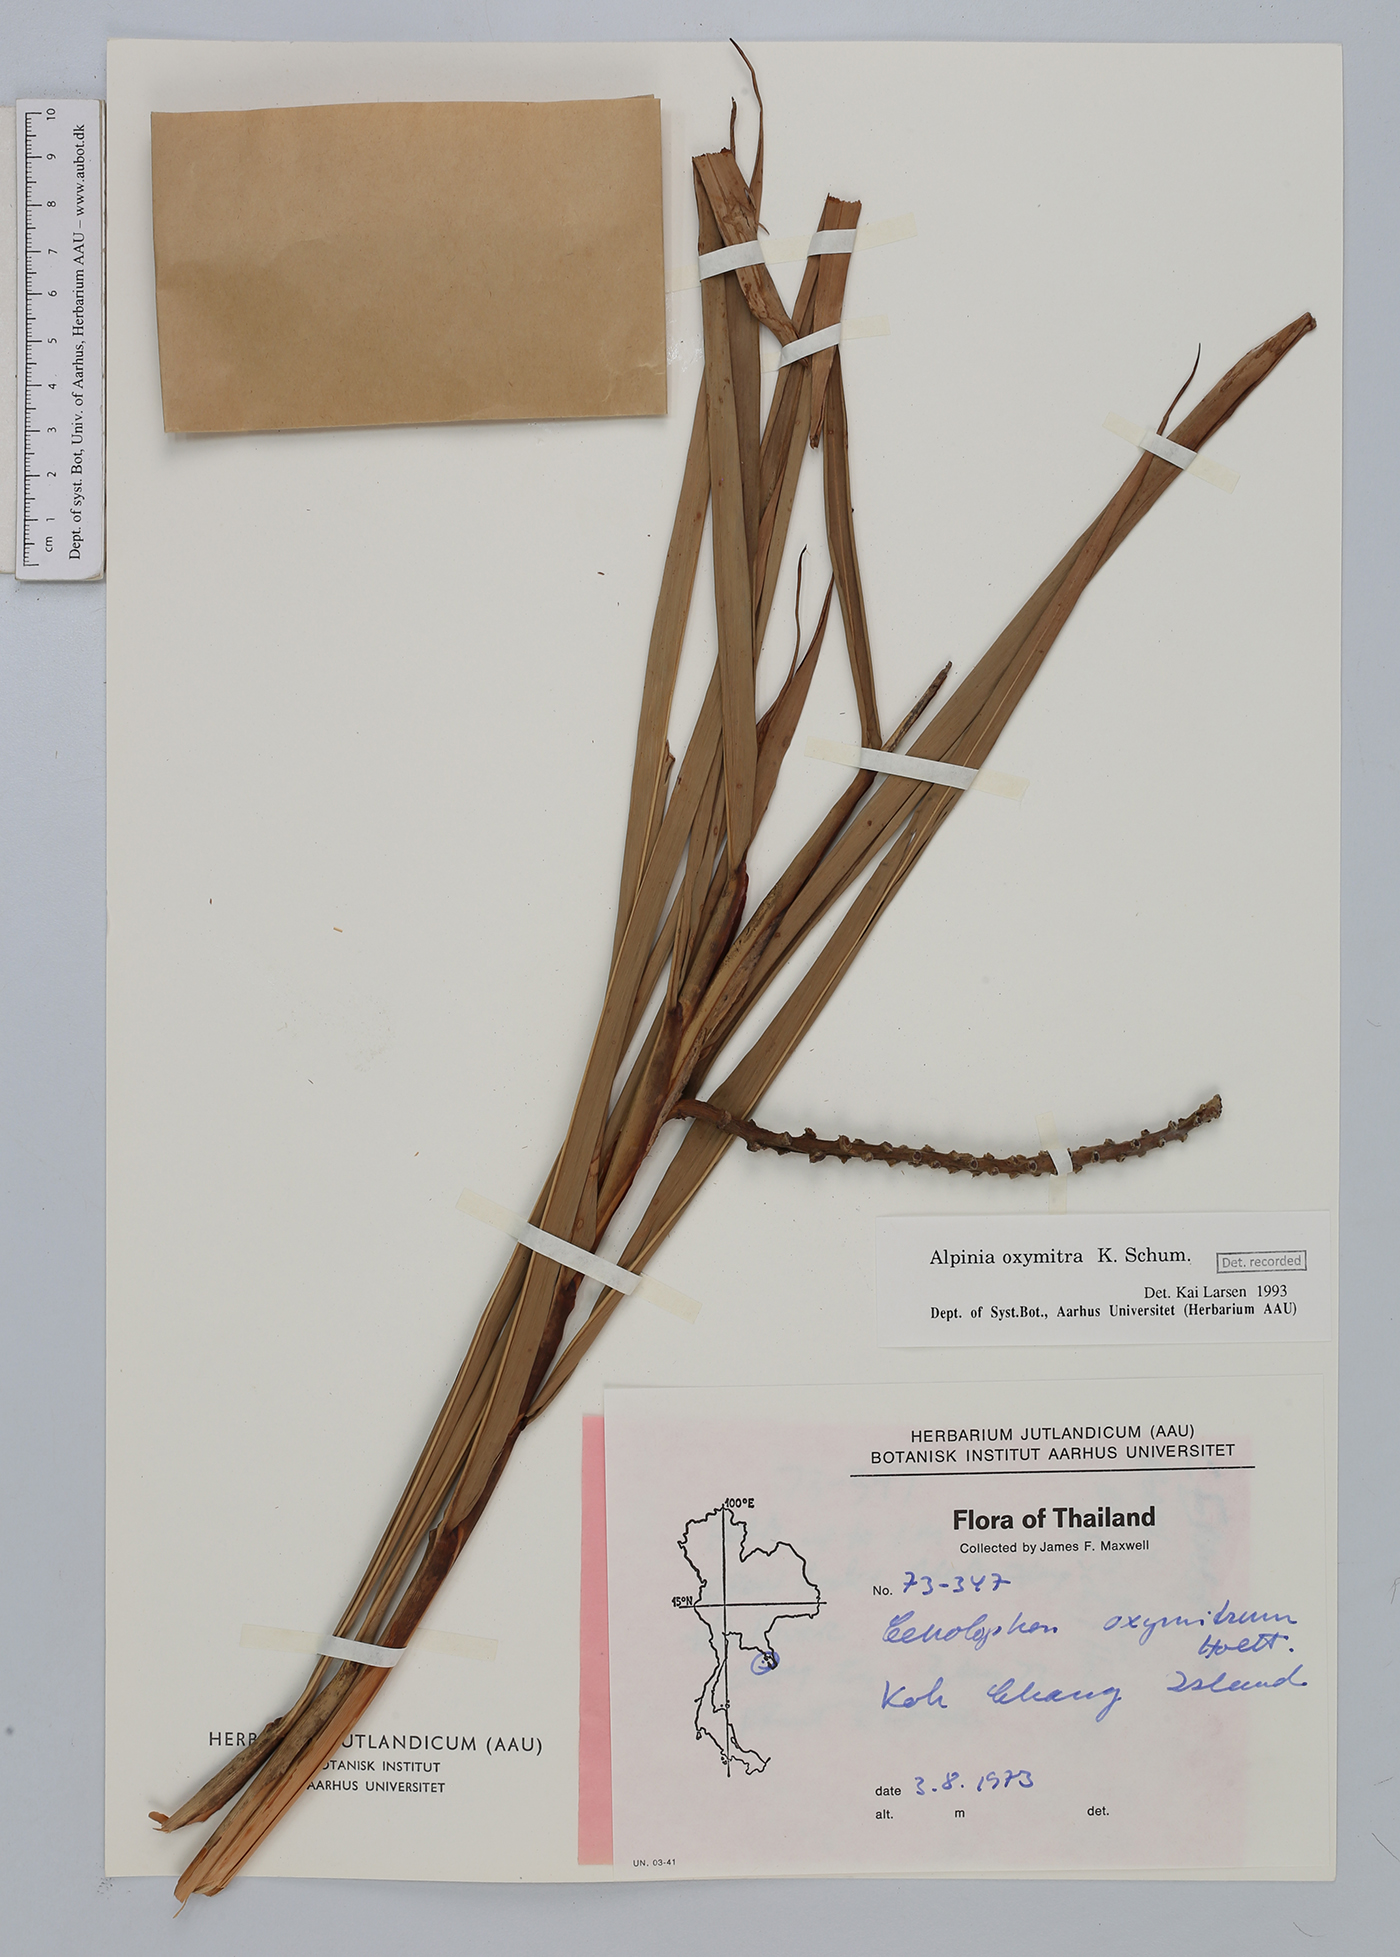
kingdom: Plantae
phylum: Tracheophyta
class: Liliopsida
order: Zingiberales
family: Zingiberaceae
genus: Alpinia
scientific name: Alpinia oxymitra
